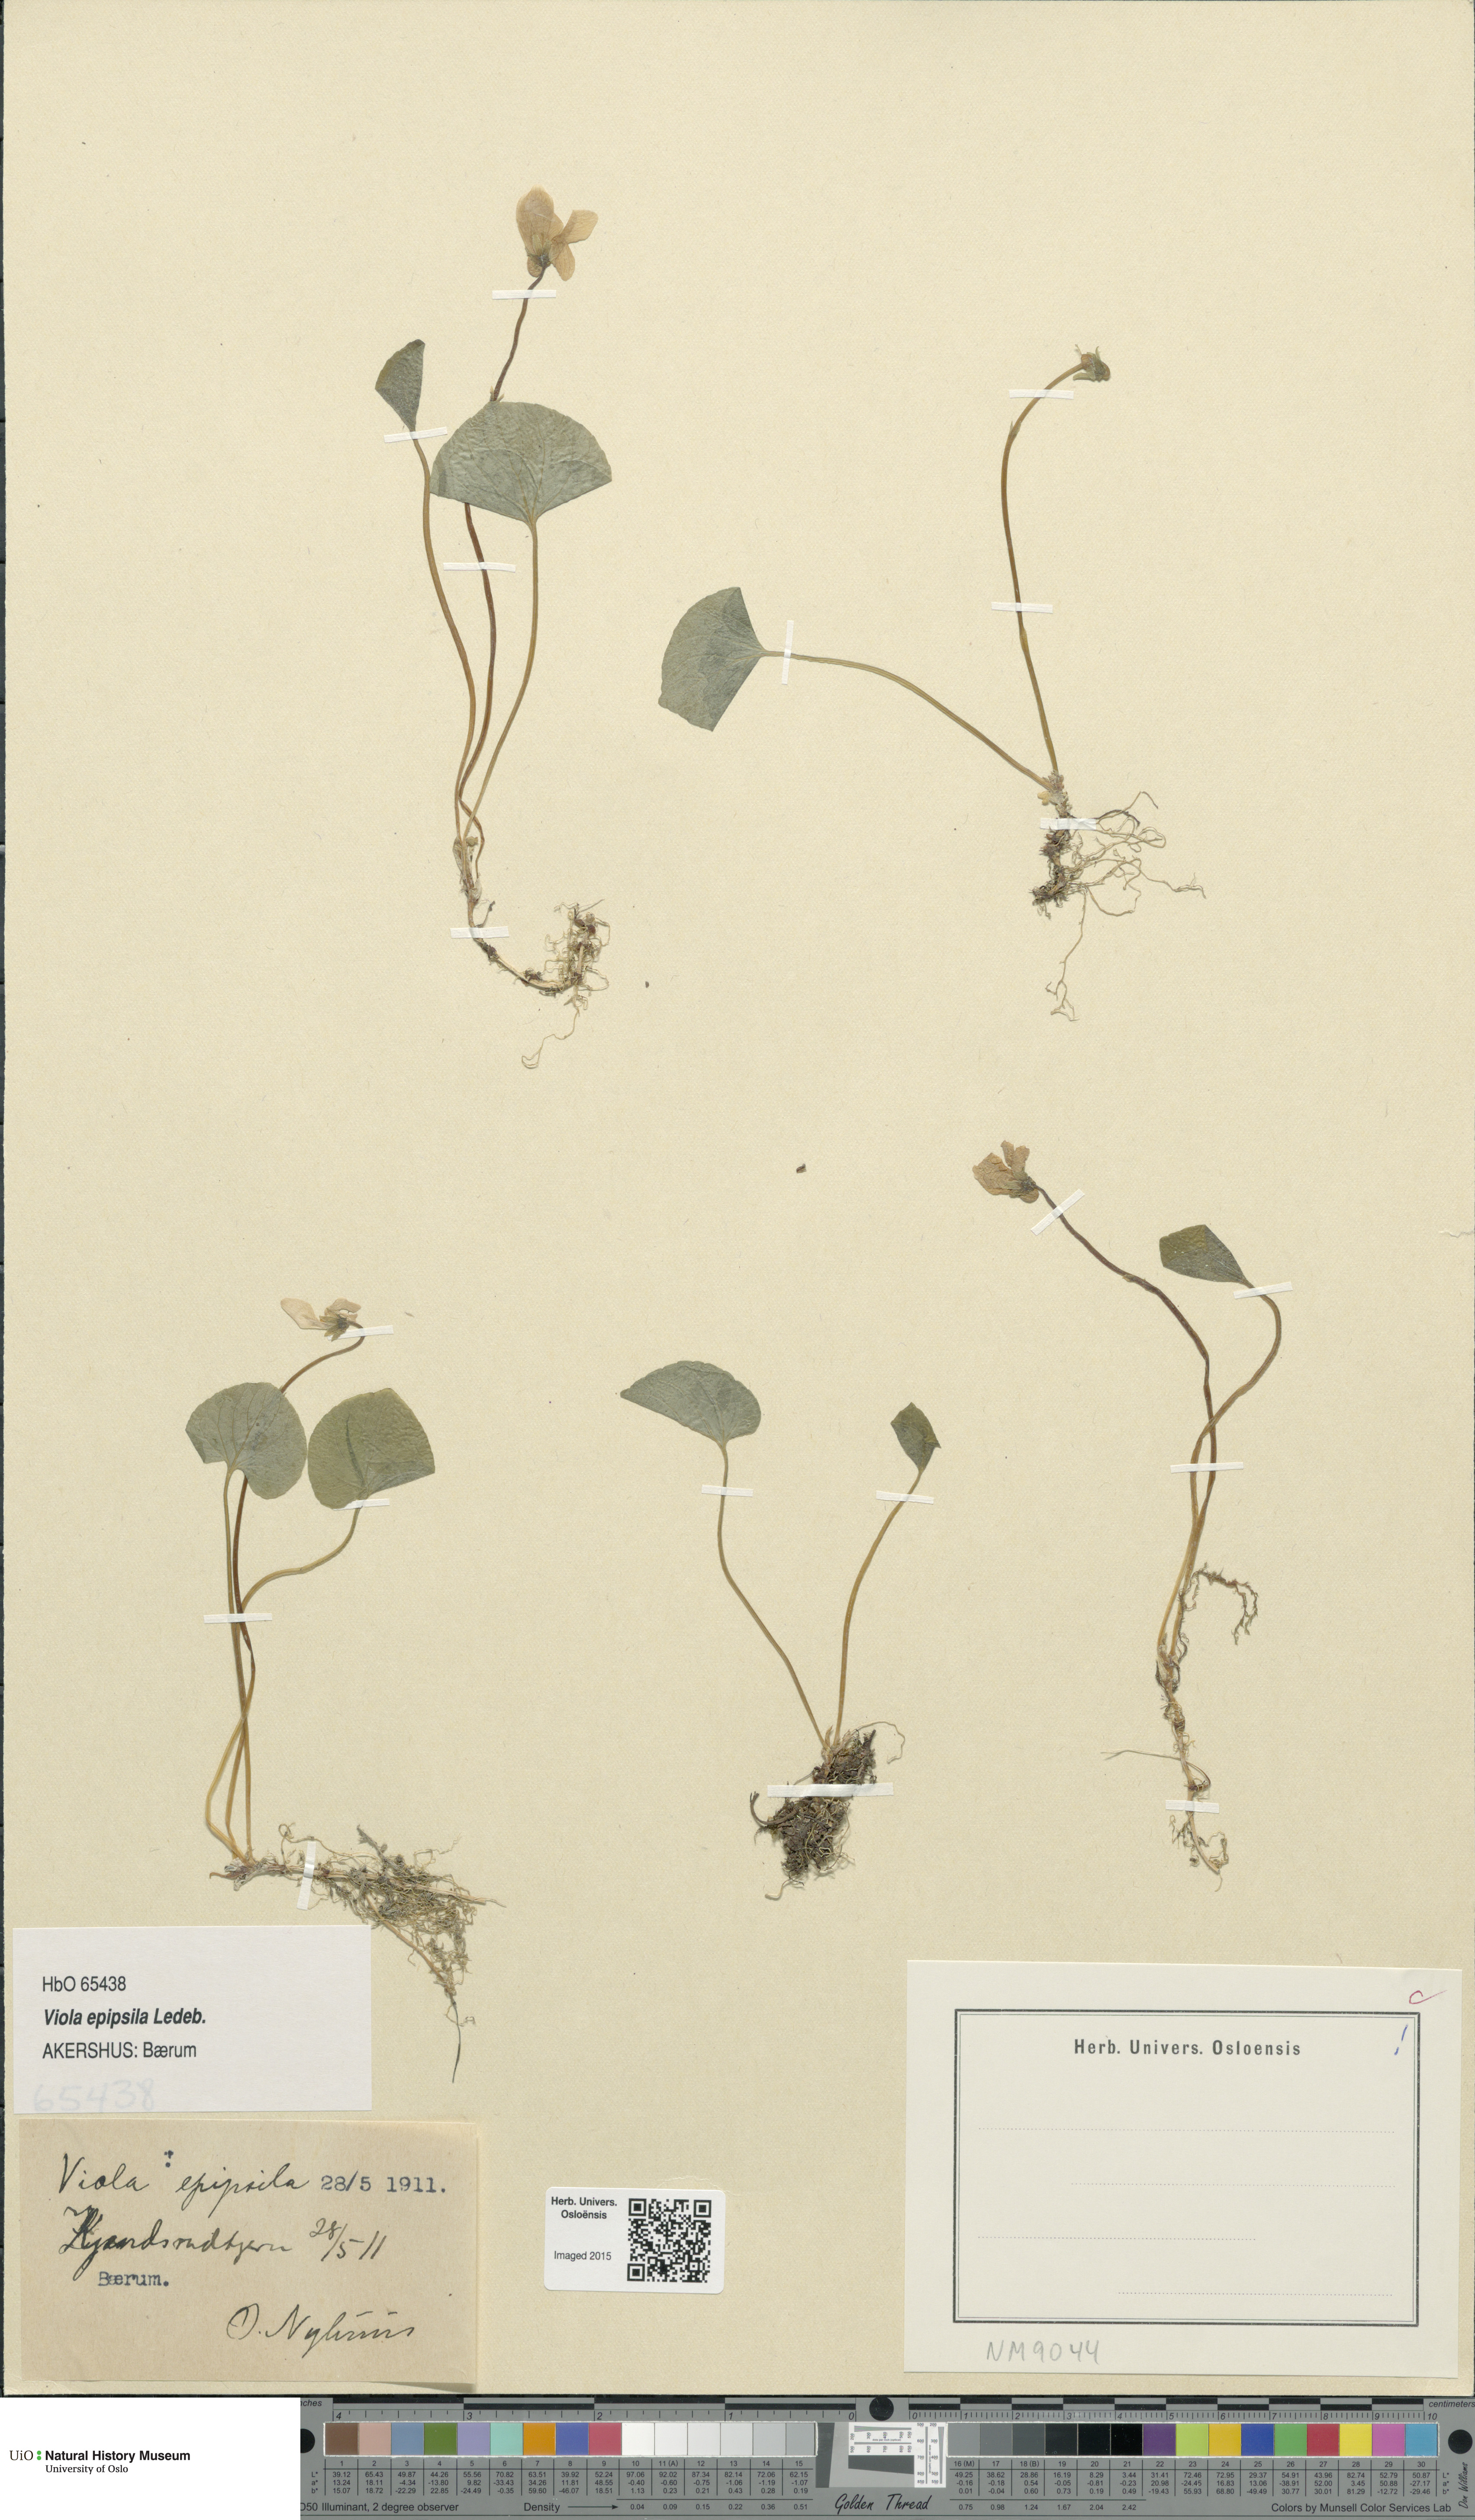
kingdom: Plantae
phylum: Tracheophyta
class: Magnoliopsida
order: Malpighiales
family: Violaceae
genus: Viola
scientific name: Viola epipsila
